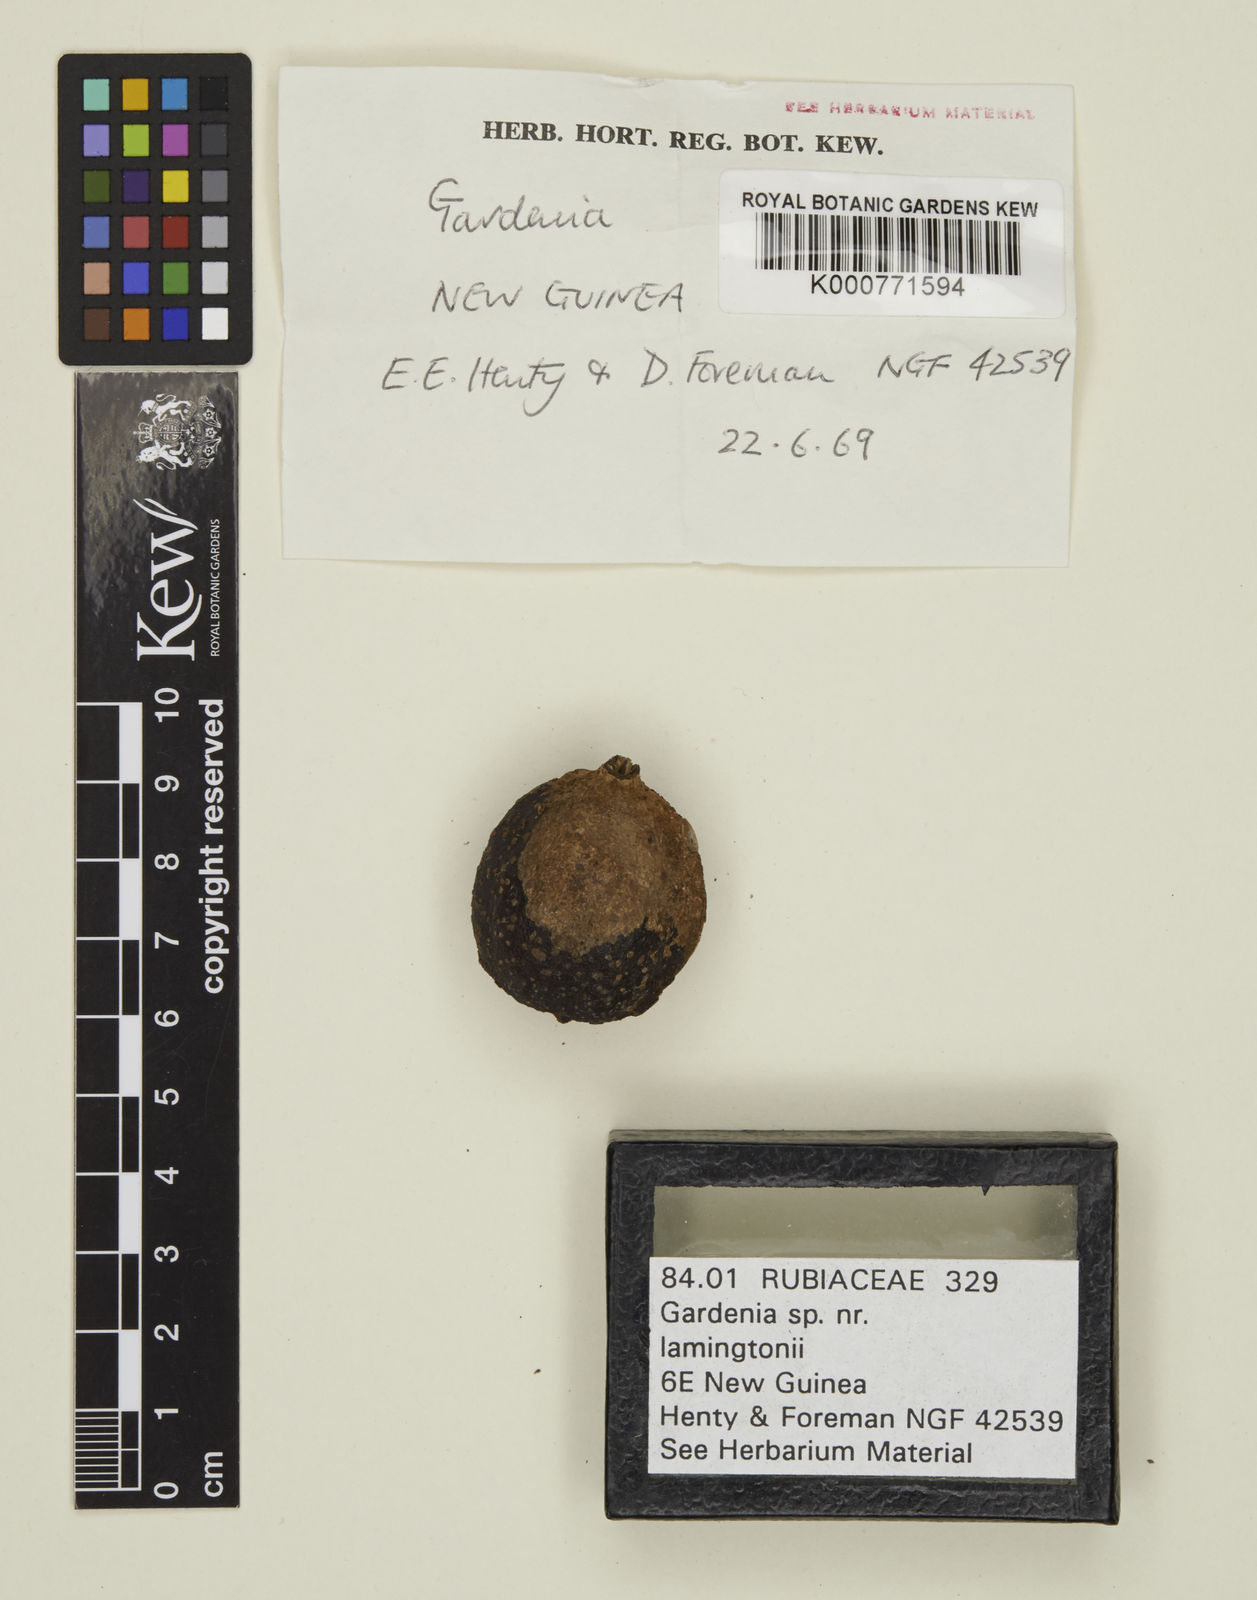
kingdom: Plantae
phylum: Tracheophyta
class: Magnoliopsida
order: Gentianales
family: Rubiaceae
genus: Gardenia
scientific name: Gardenia lamingtonii
